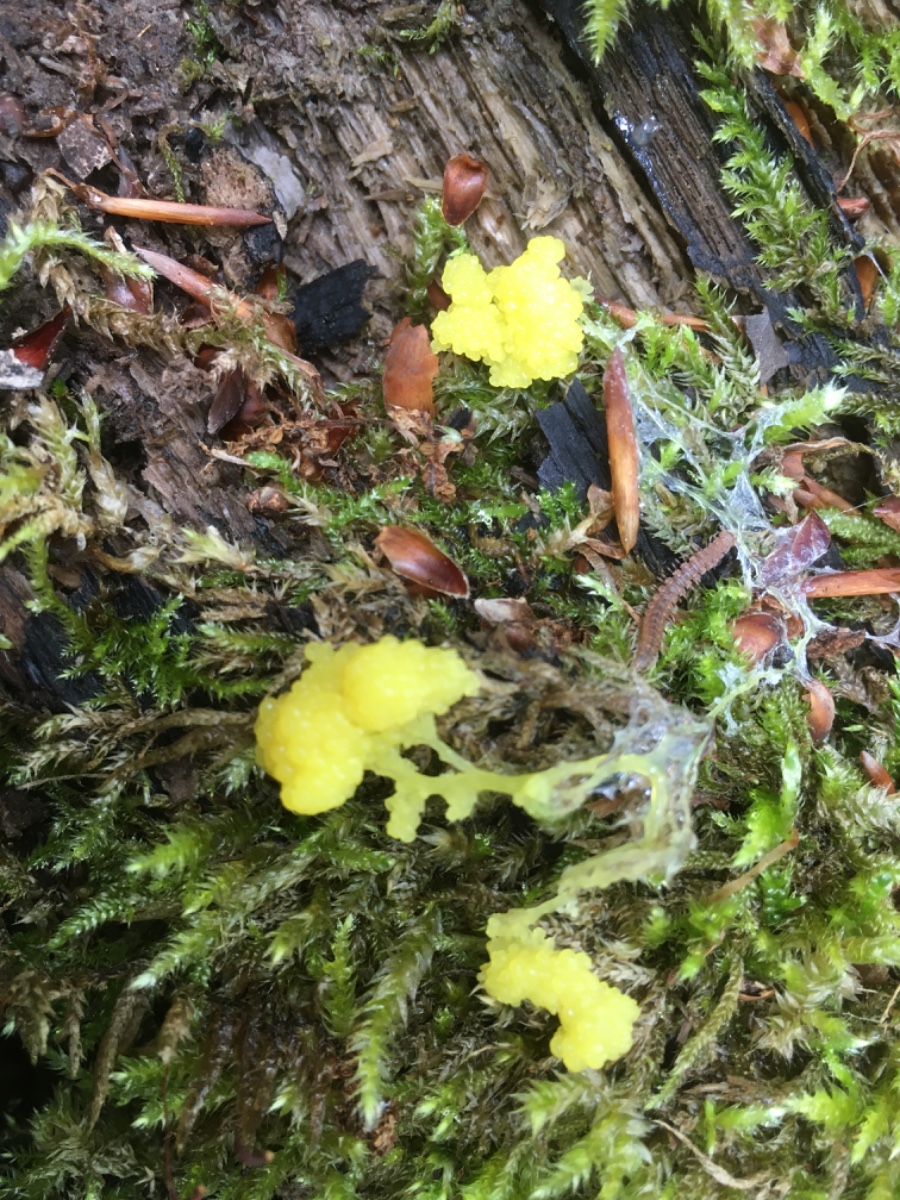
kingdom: Protozoa
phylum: Mycetozoa
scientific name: Mycetozoa
